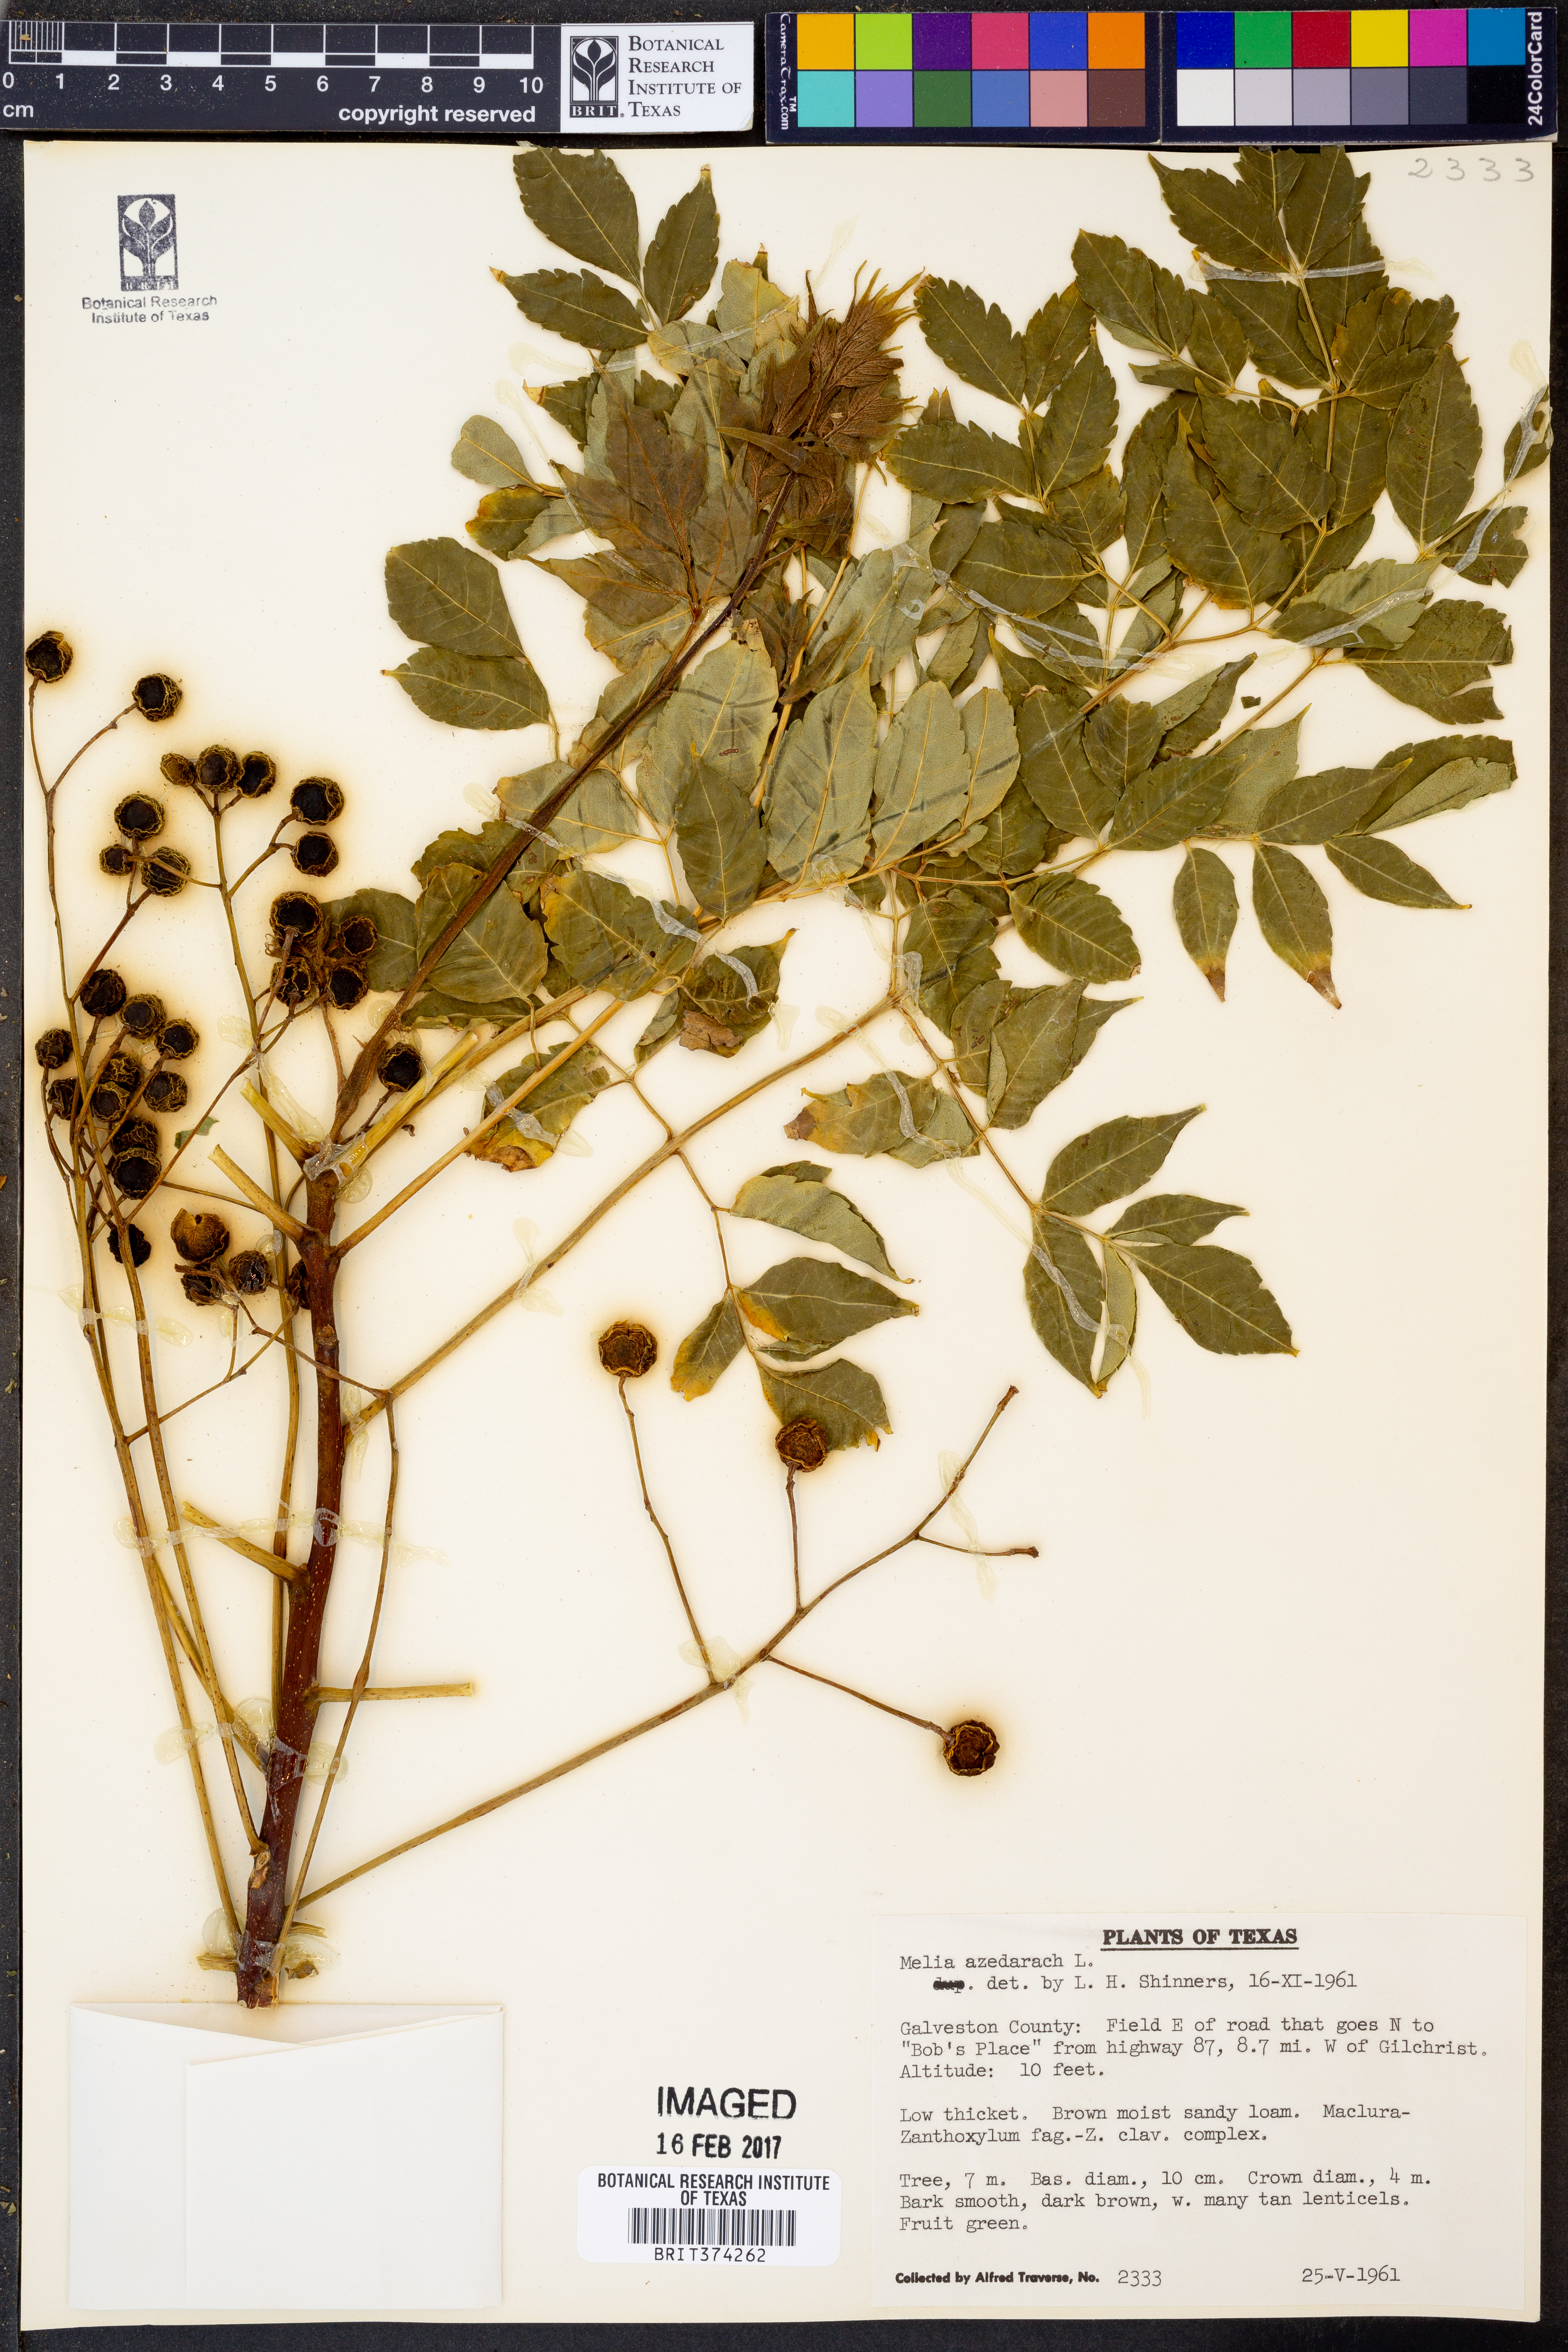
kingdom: Plantae
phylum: Tracheophyta
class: Magnoliopsida
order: Sapindales
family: Meliaceae
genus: Melia
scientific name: Melia azedarach
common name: Chinaberrytree
